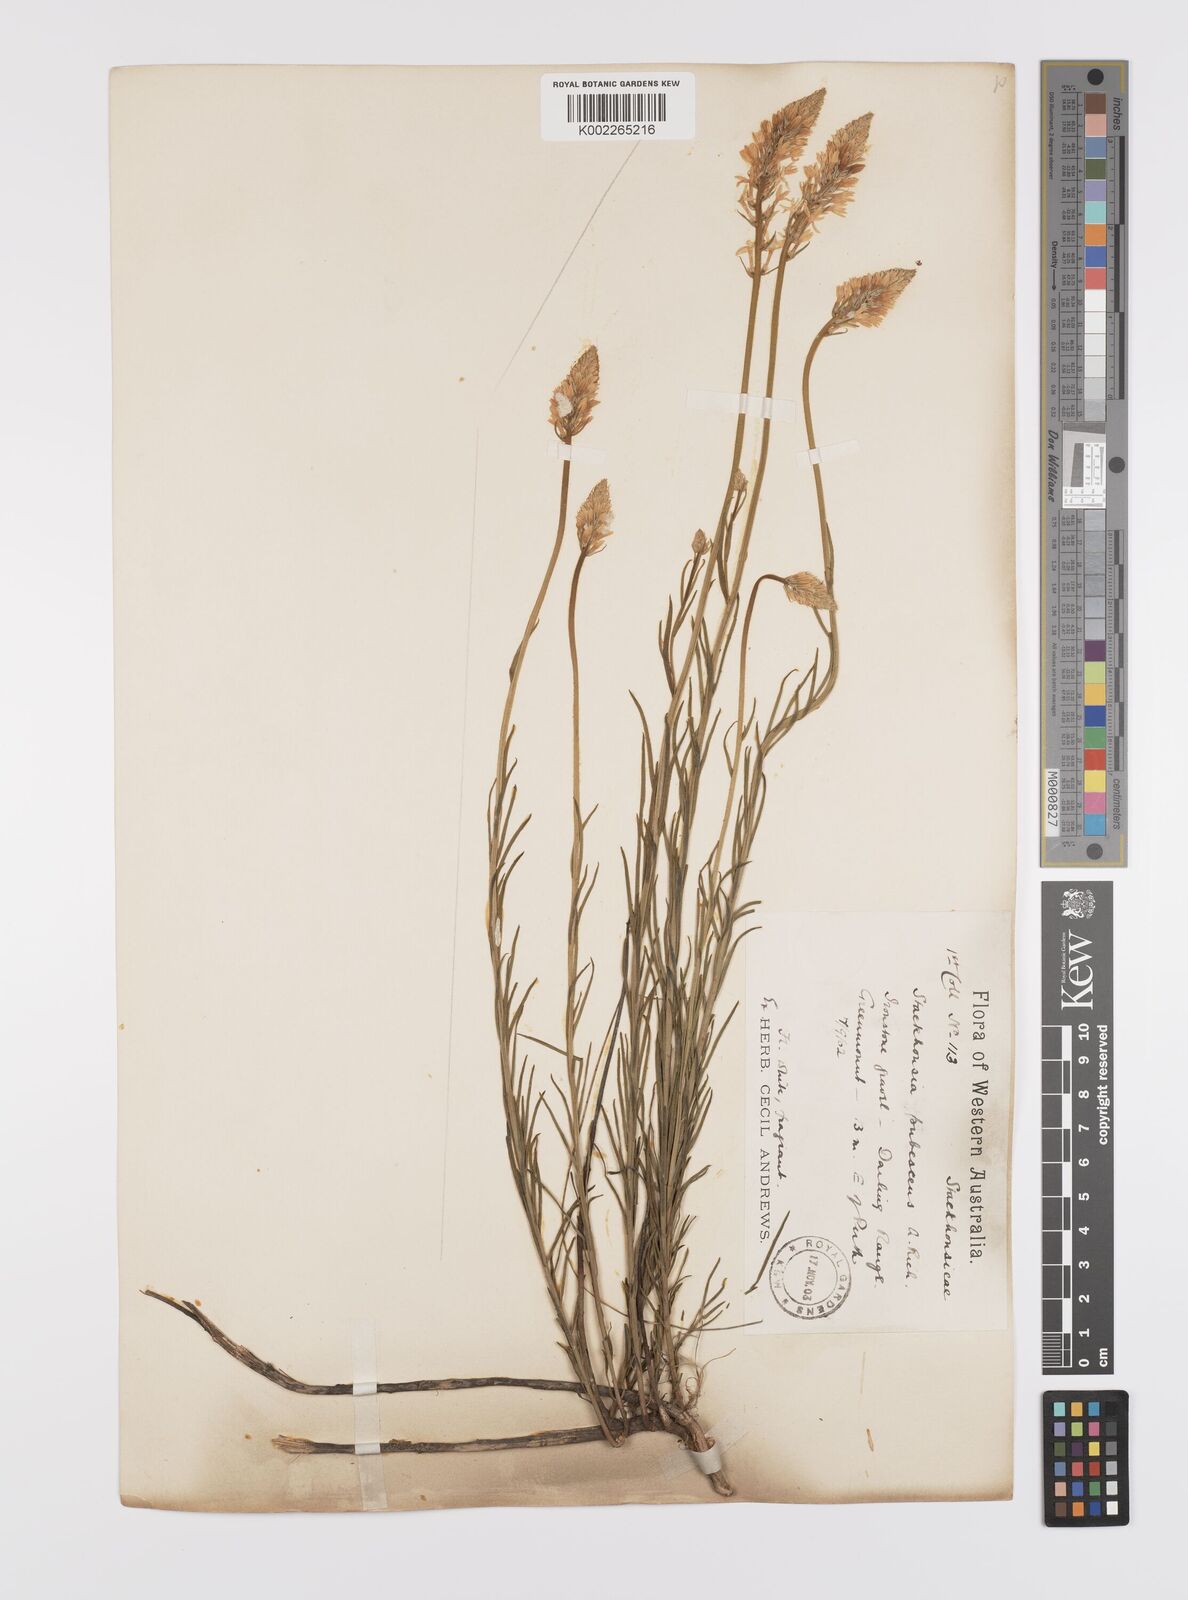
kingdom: Plantae
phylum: Tracheophyta
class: Magnoliopsida
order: Celastrales
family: Celastraceae
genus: Stackhousia
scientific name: Stackhousia monogyna
